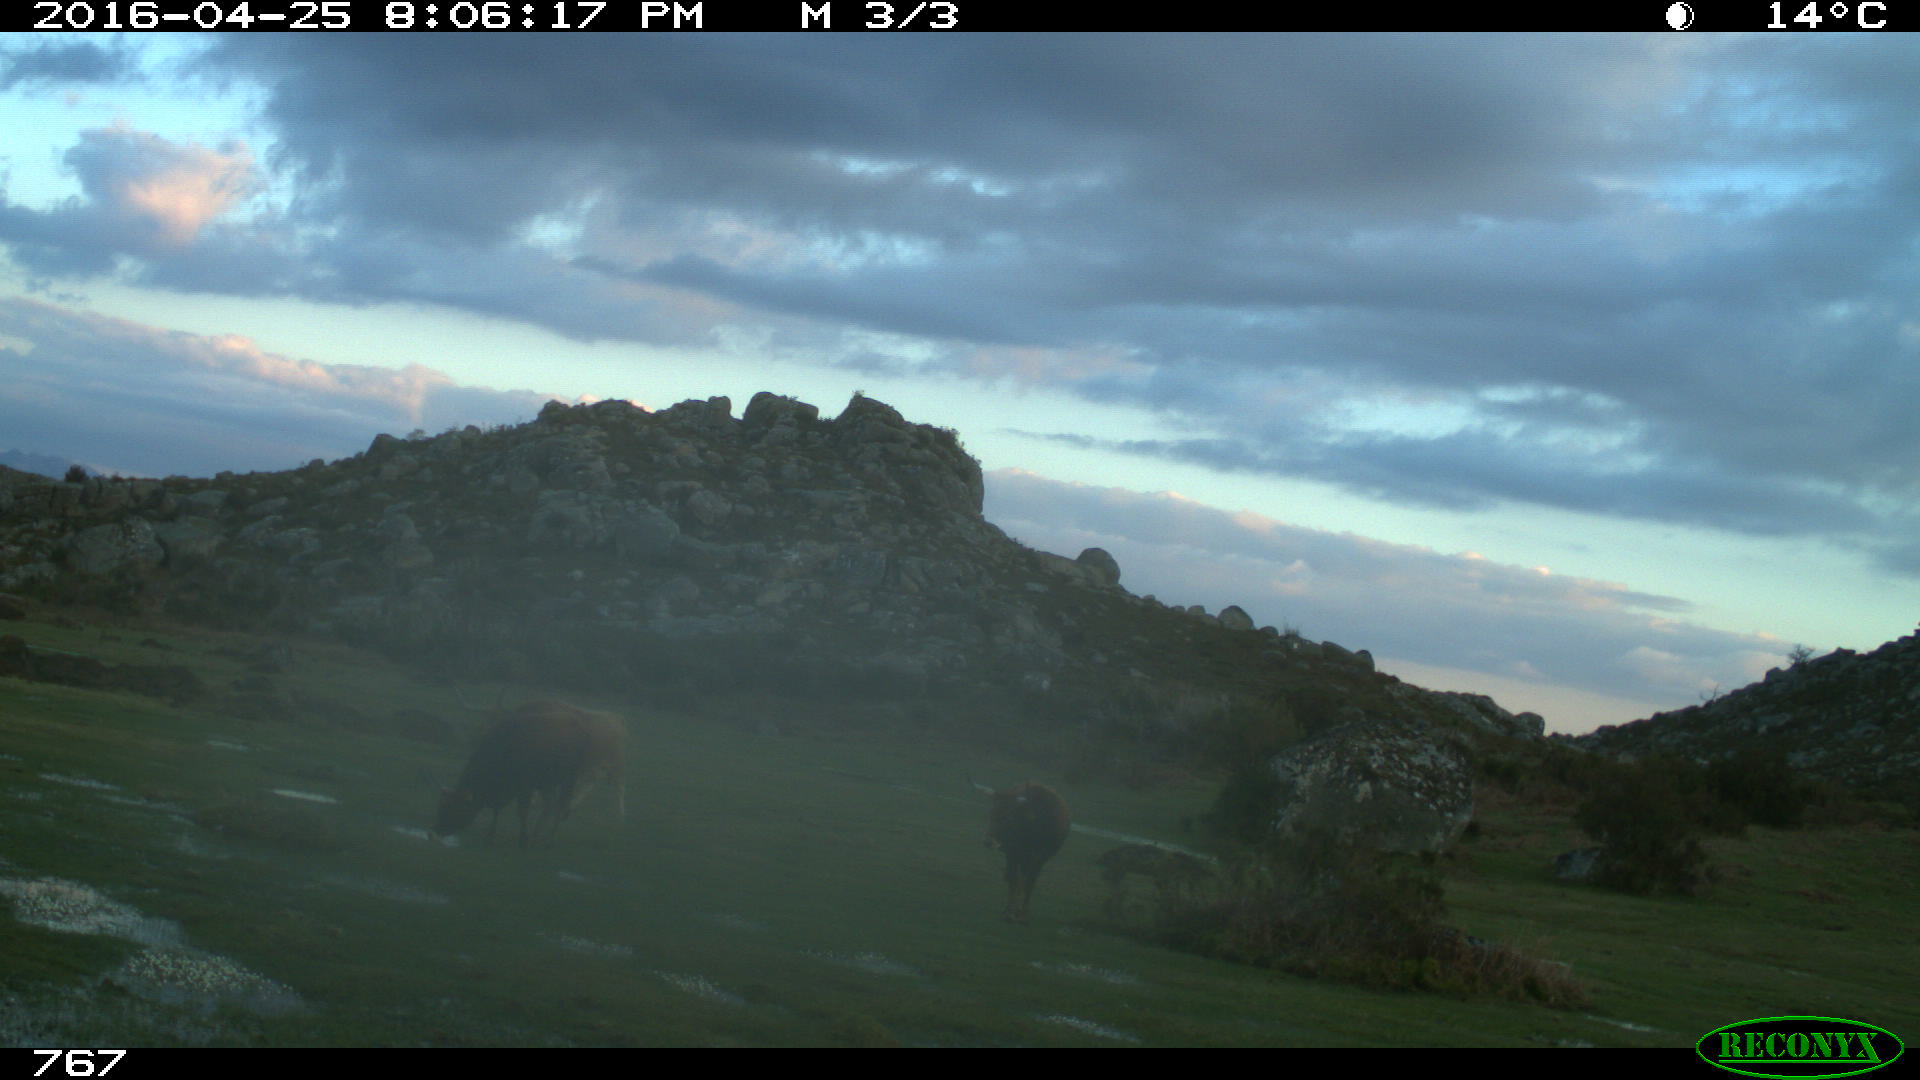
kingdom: Animalia
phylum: Chordata
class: Mammalia
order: Artiodactyla
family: Bovidae
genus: Bos
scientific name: Bos taurus
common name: Domesticated cattle
